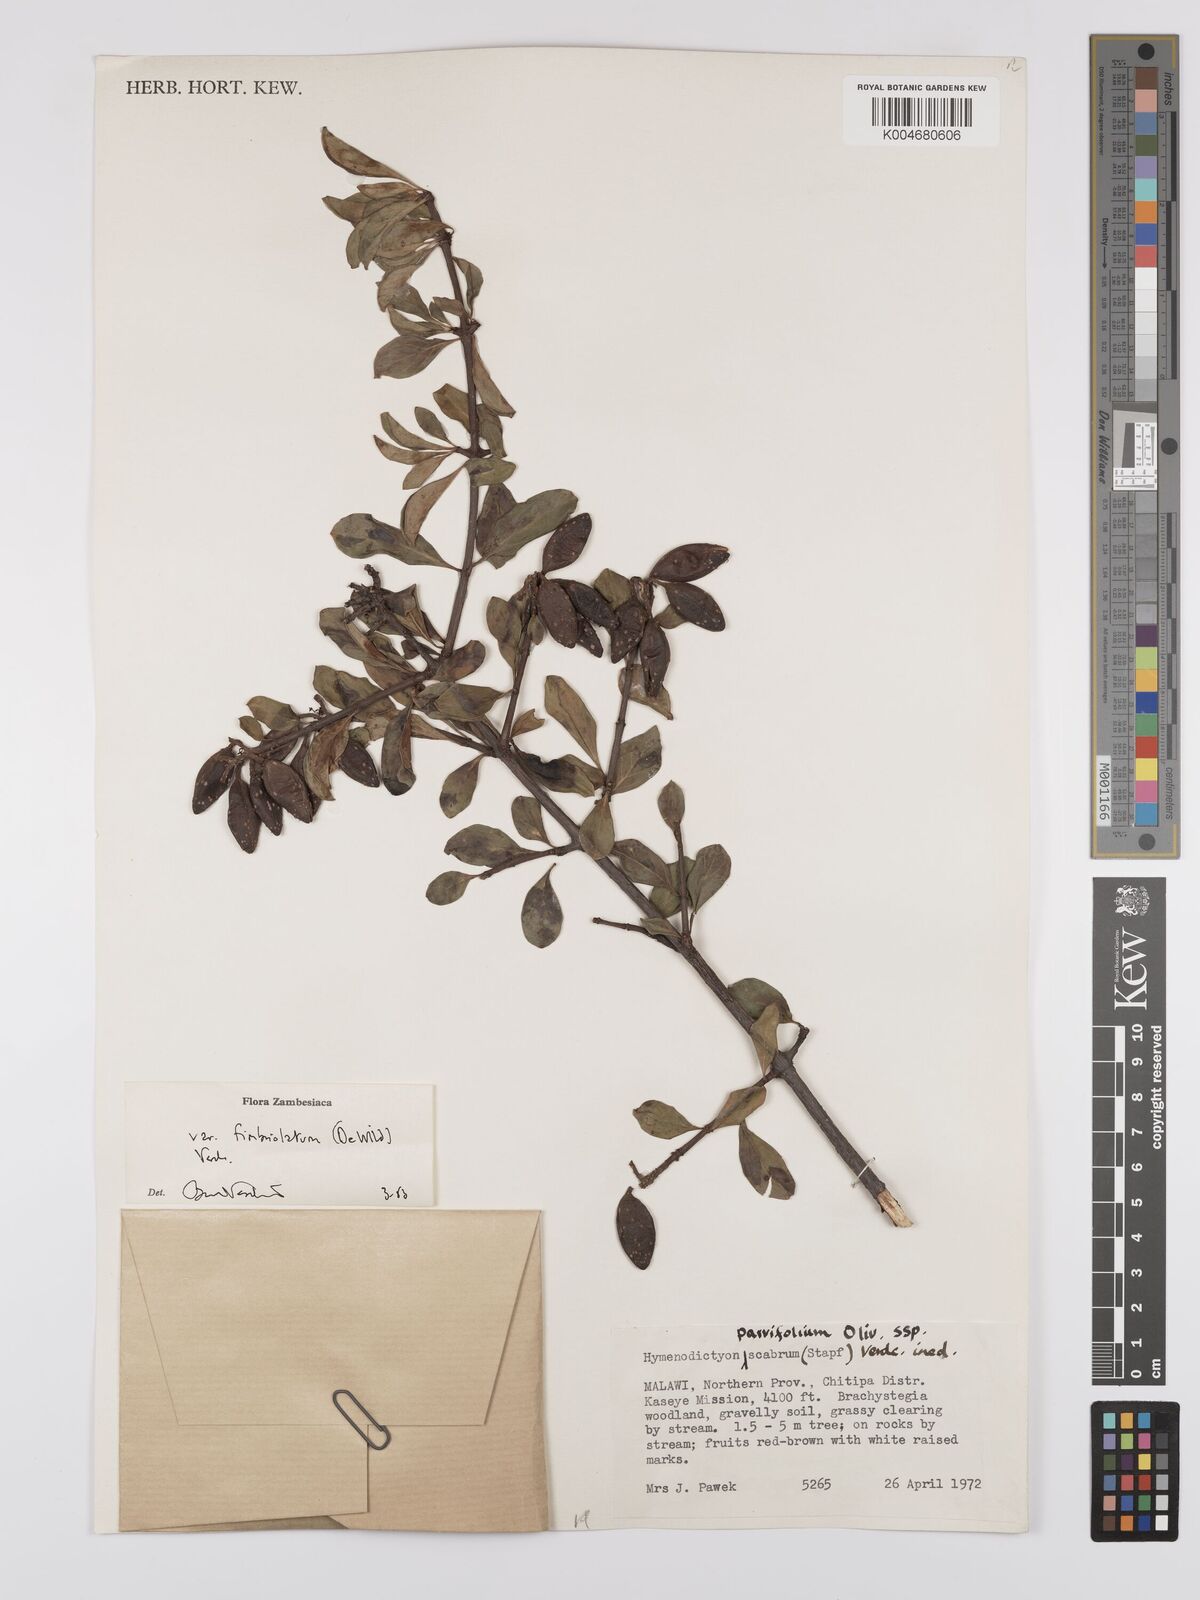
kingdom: Plantae
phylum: Tracheophyta
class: Magnoliopsida
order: Gentianales
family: Rubiaceae
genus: Hymenodictyon
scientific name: Hymenodictyon scabrum
